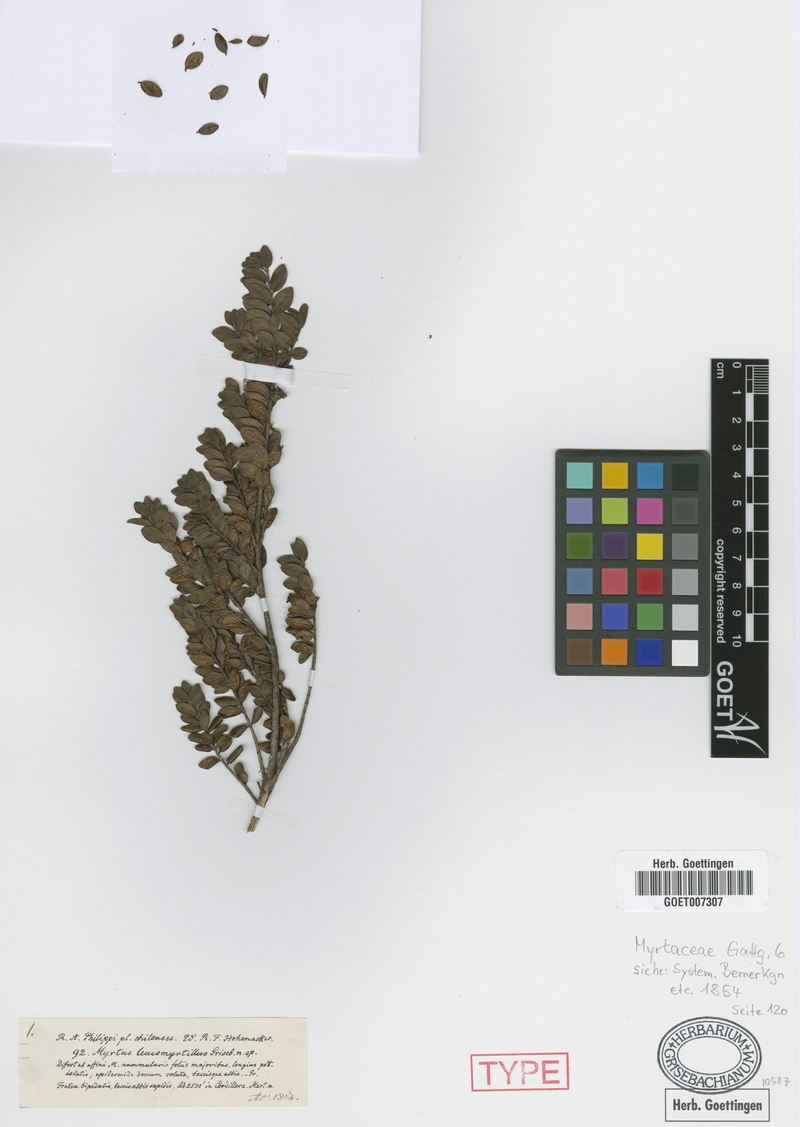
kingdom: Plantae
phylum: Tracheophyta
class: Magnoliopsida
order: Myrtales
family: Myrtaceae
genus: Myrteola
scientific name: Myrteola nummularia
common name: Cranberry-myrtle
